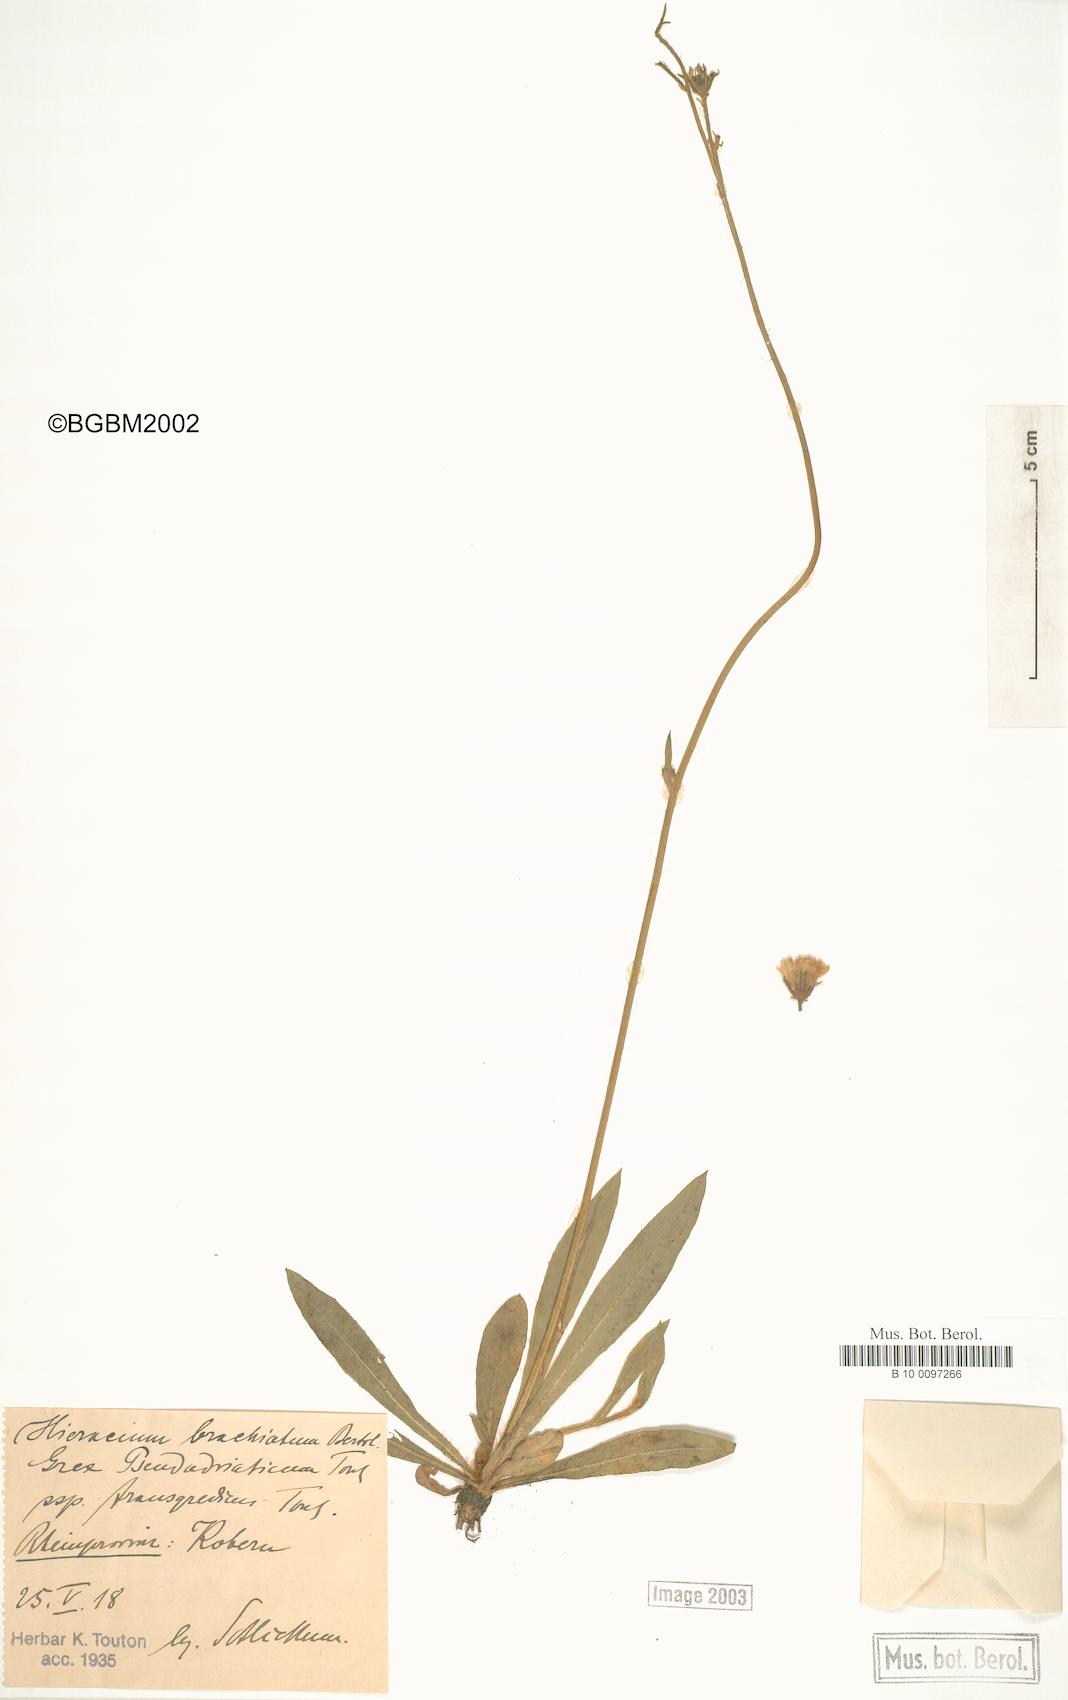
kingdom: Plantae
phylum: Tracheophyta
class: Magnoliopsida
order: Asterales
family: Asteraceae
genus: Pilosella
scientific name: Pilosella acutifolia
